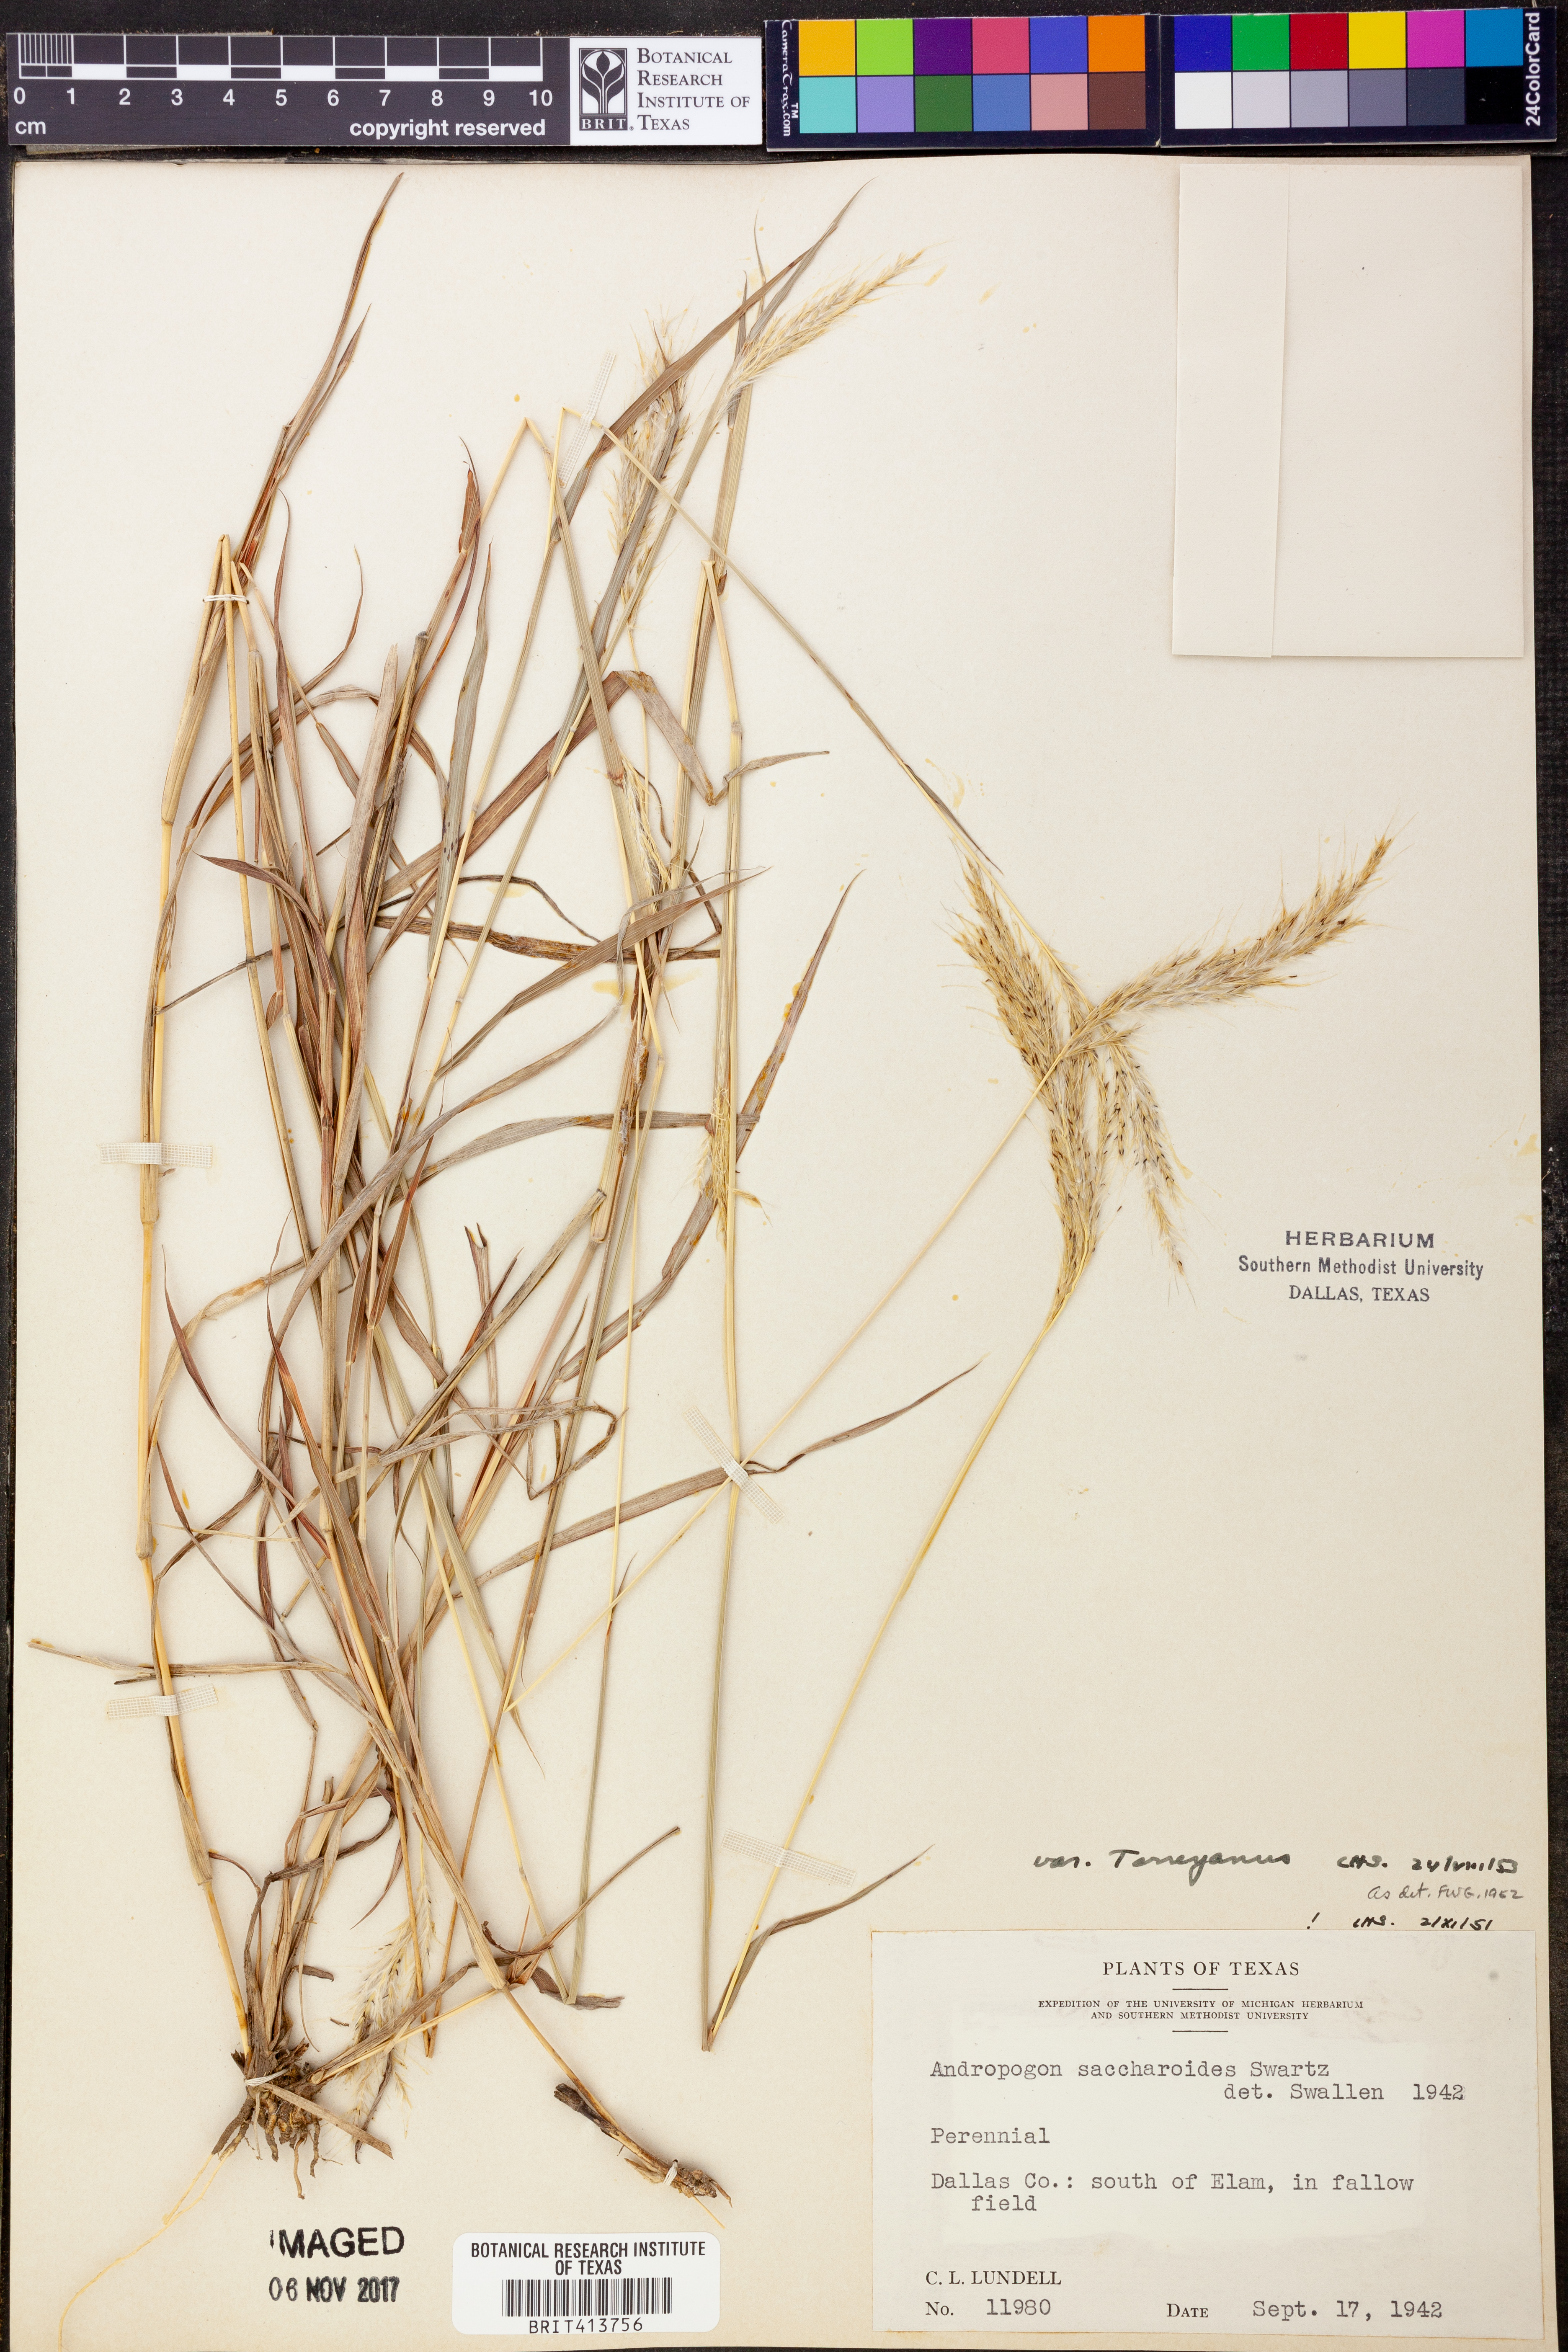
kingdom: Plantae
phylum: Tracheophyta
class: Liliopsida
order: Poales
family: Poaceae
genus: Bothriochloa
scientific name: Bothriochloa torreyana
